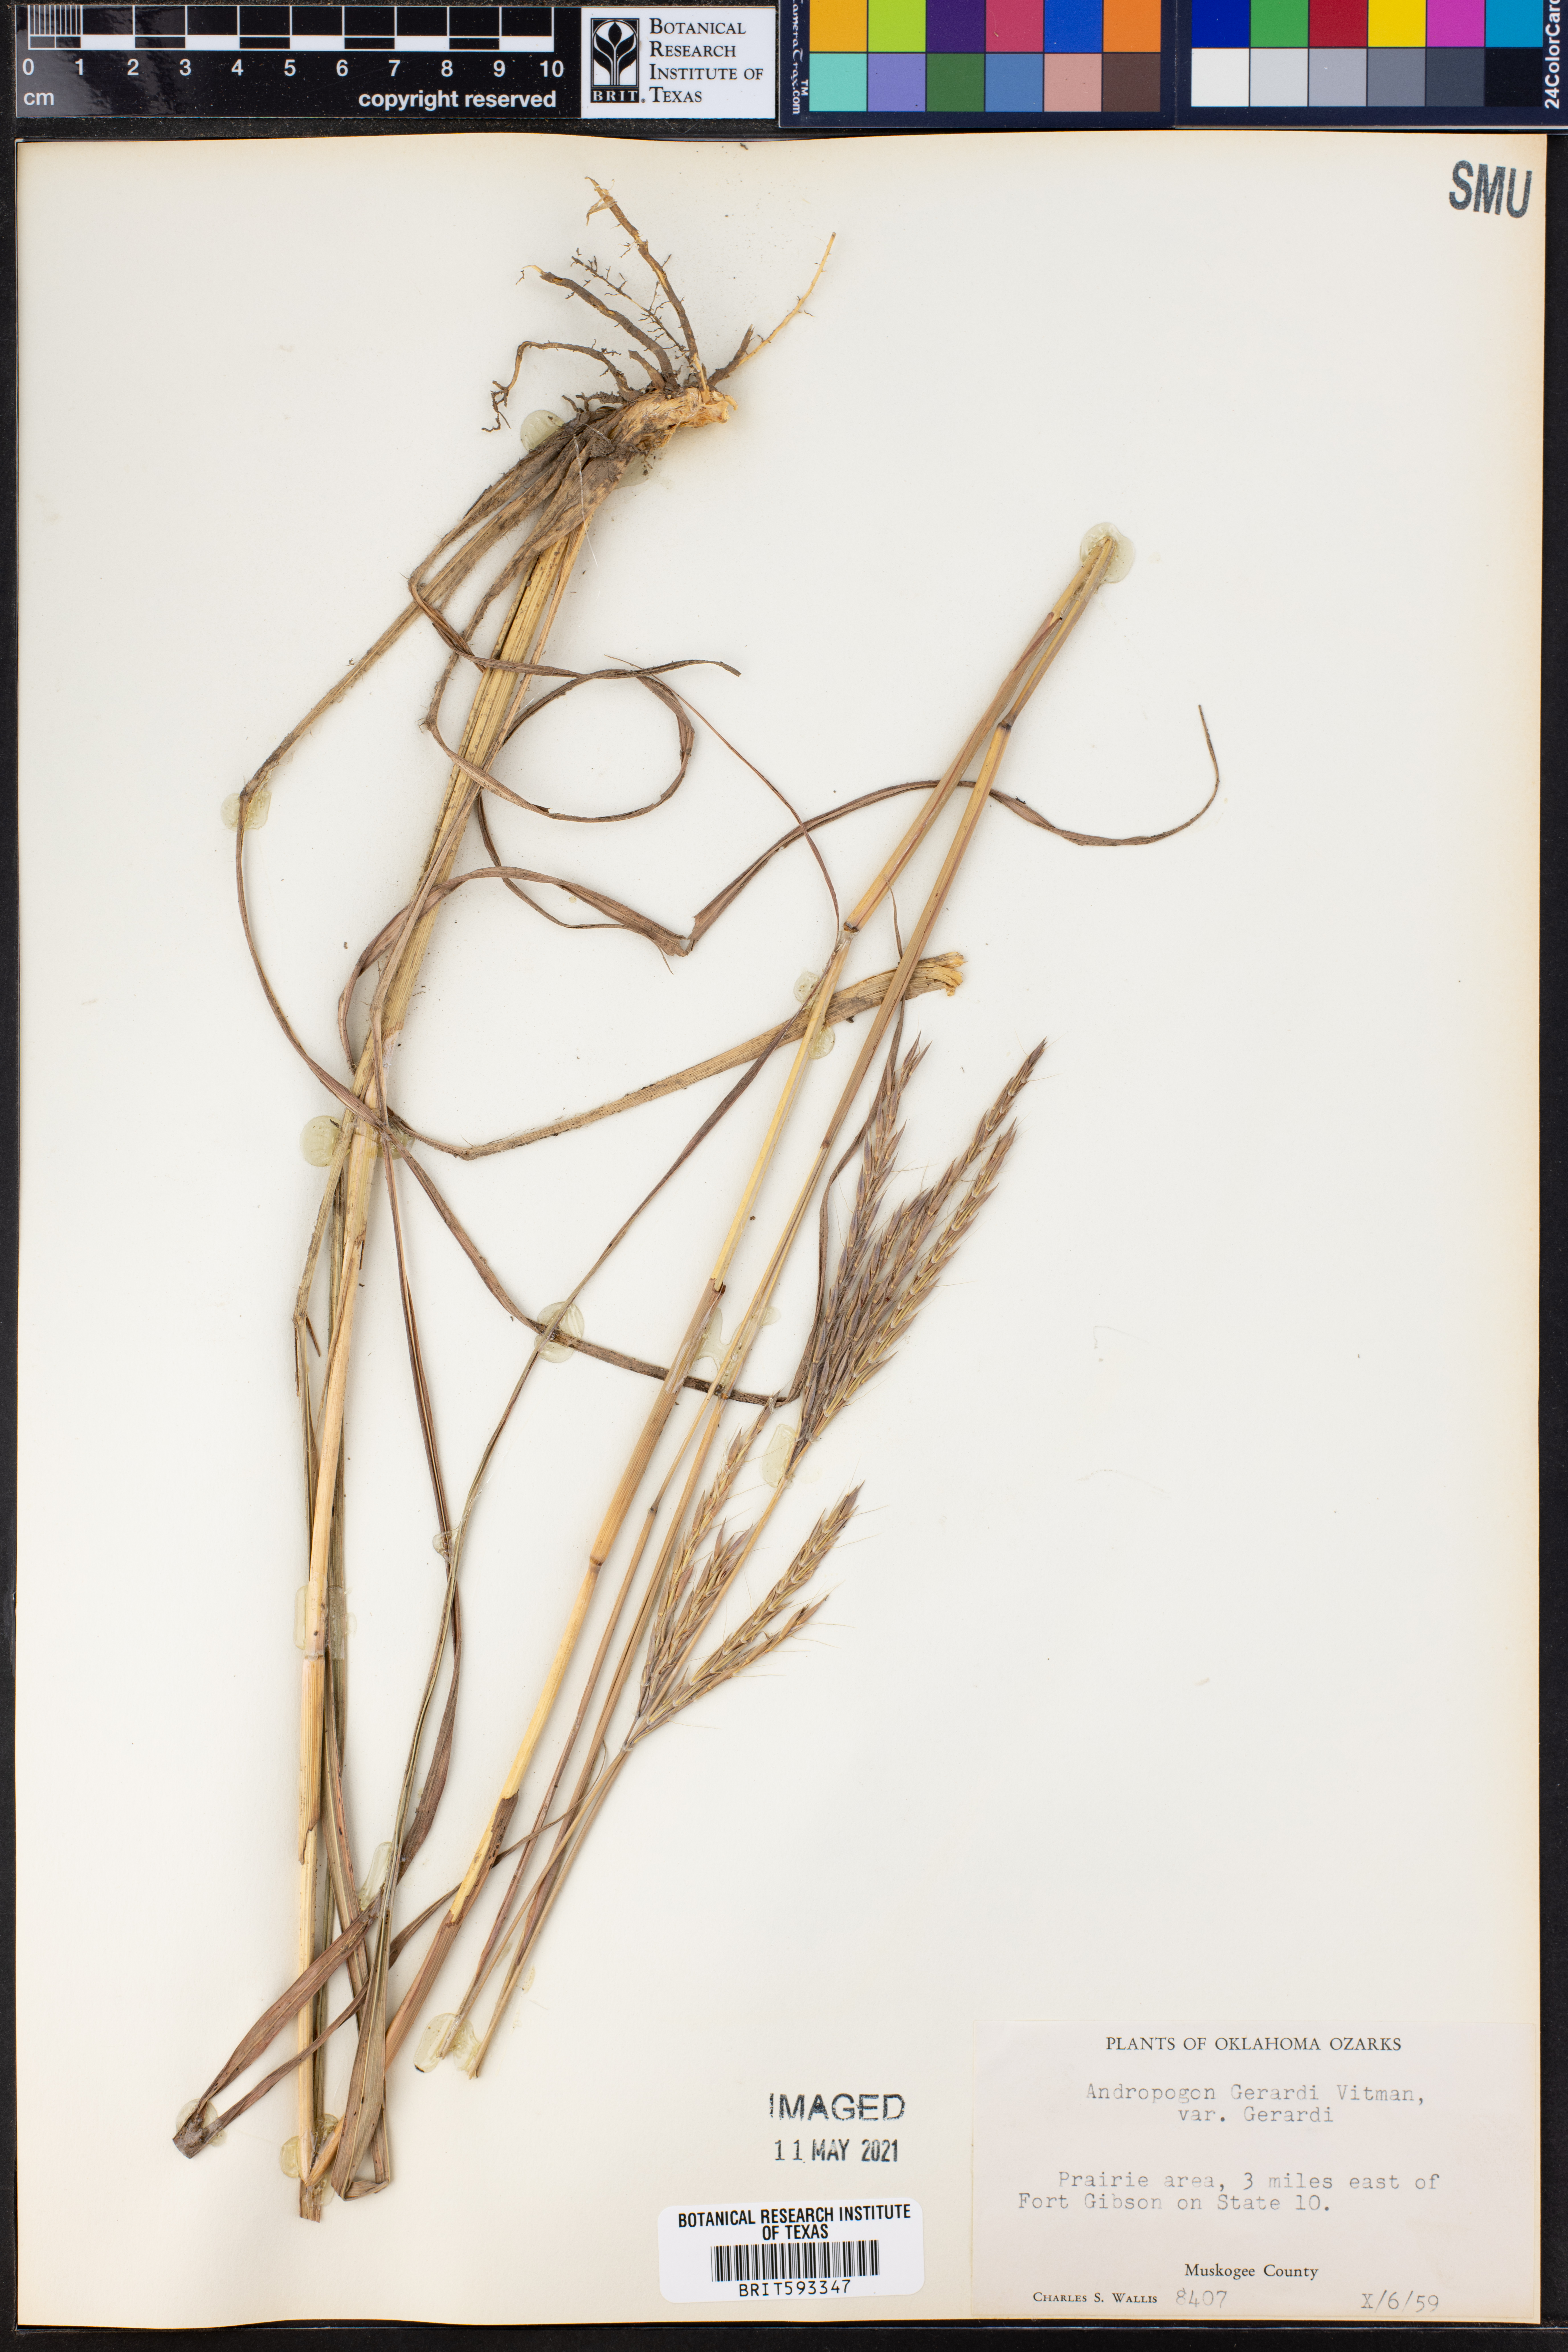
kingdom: Plantae
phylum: Tracheophyta
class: Liliopsida
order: Poales
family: Poaceae
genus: Andropogon
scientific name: Andropogon gerardi
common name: Big bluestem
